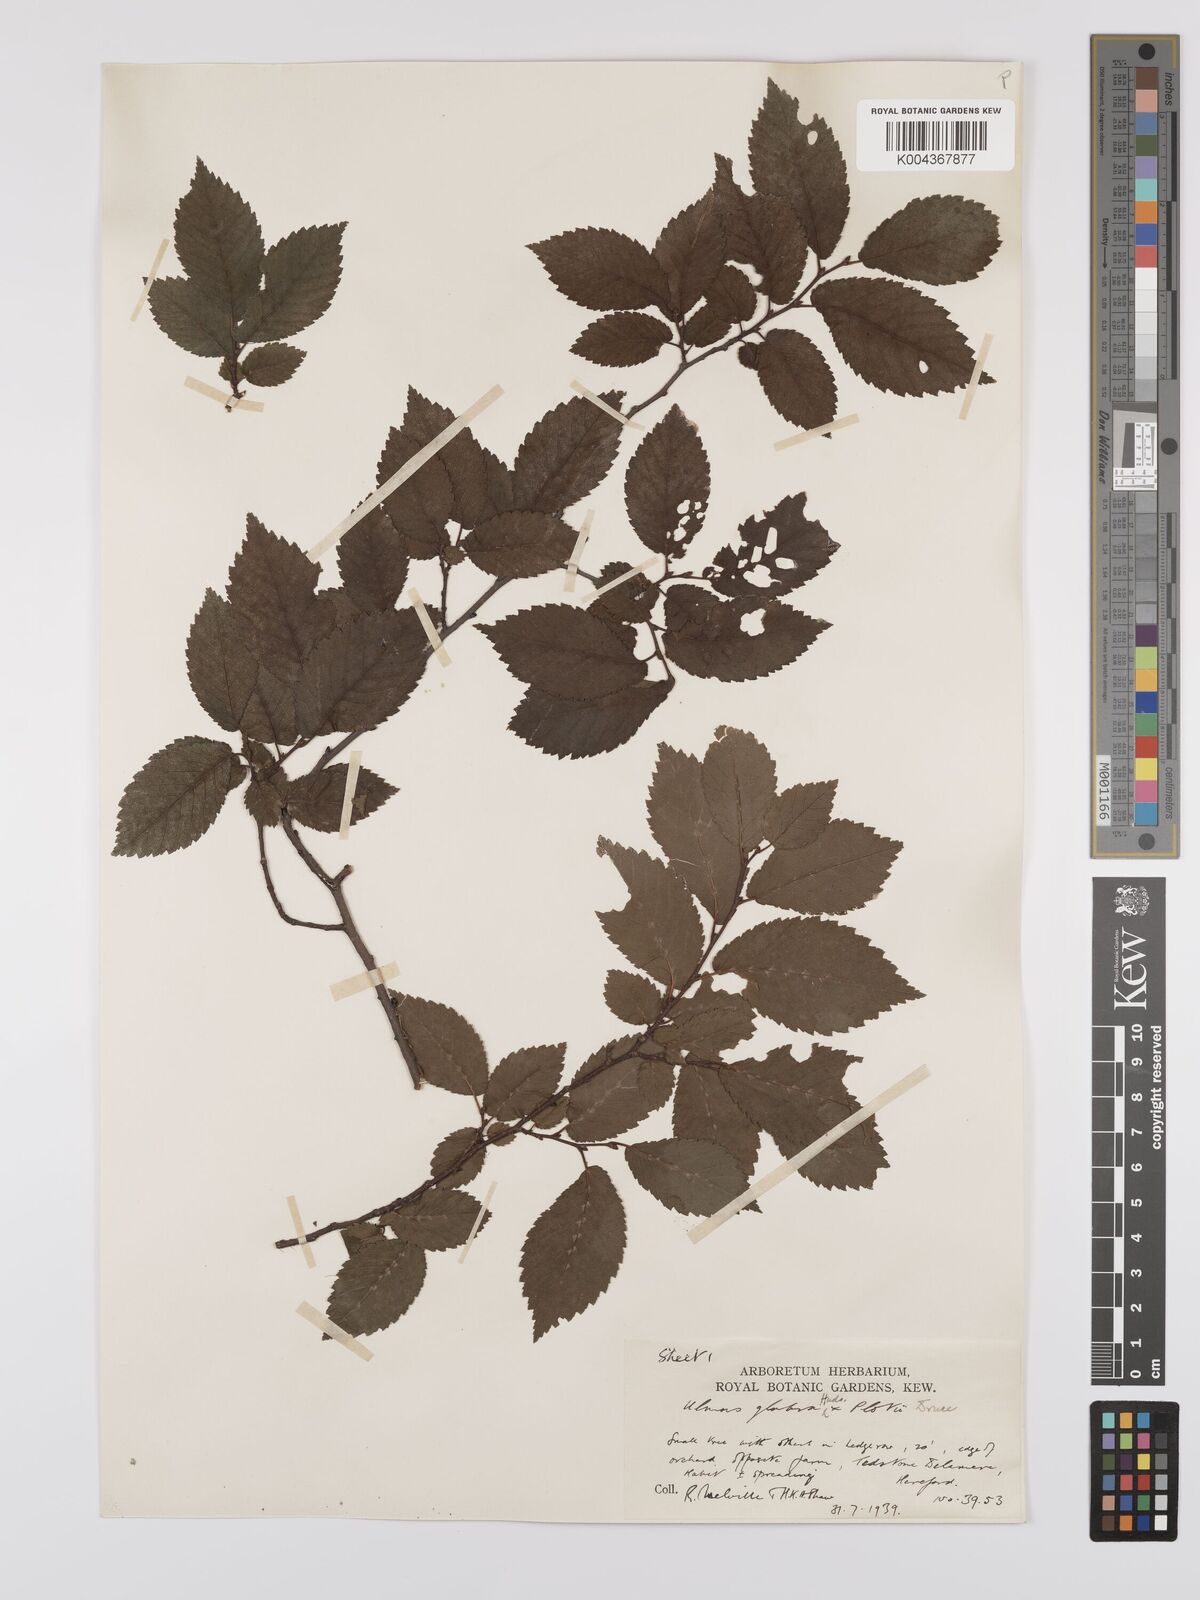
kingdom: Plantae
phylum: Tracheophyta
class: Magnoliopsida
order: Rosales
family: Ulmaceae
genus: Ulmus
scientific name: Ulmus
